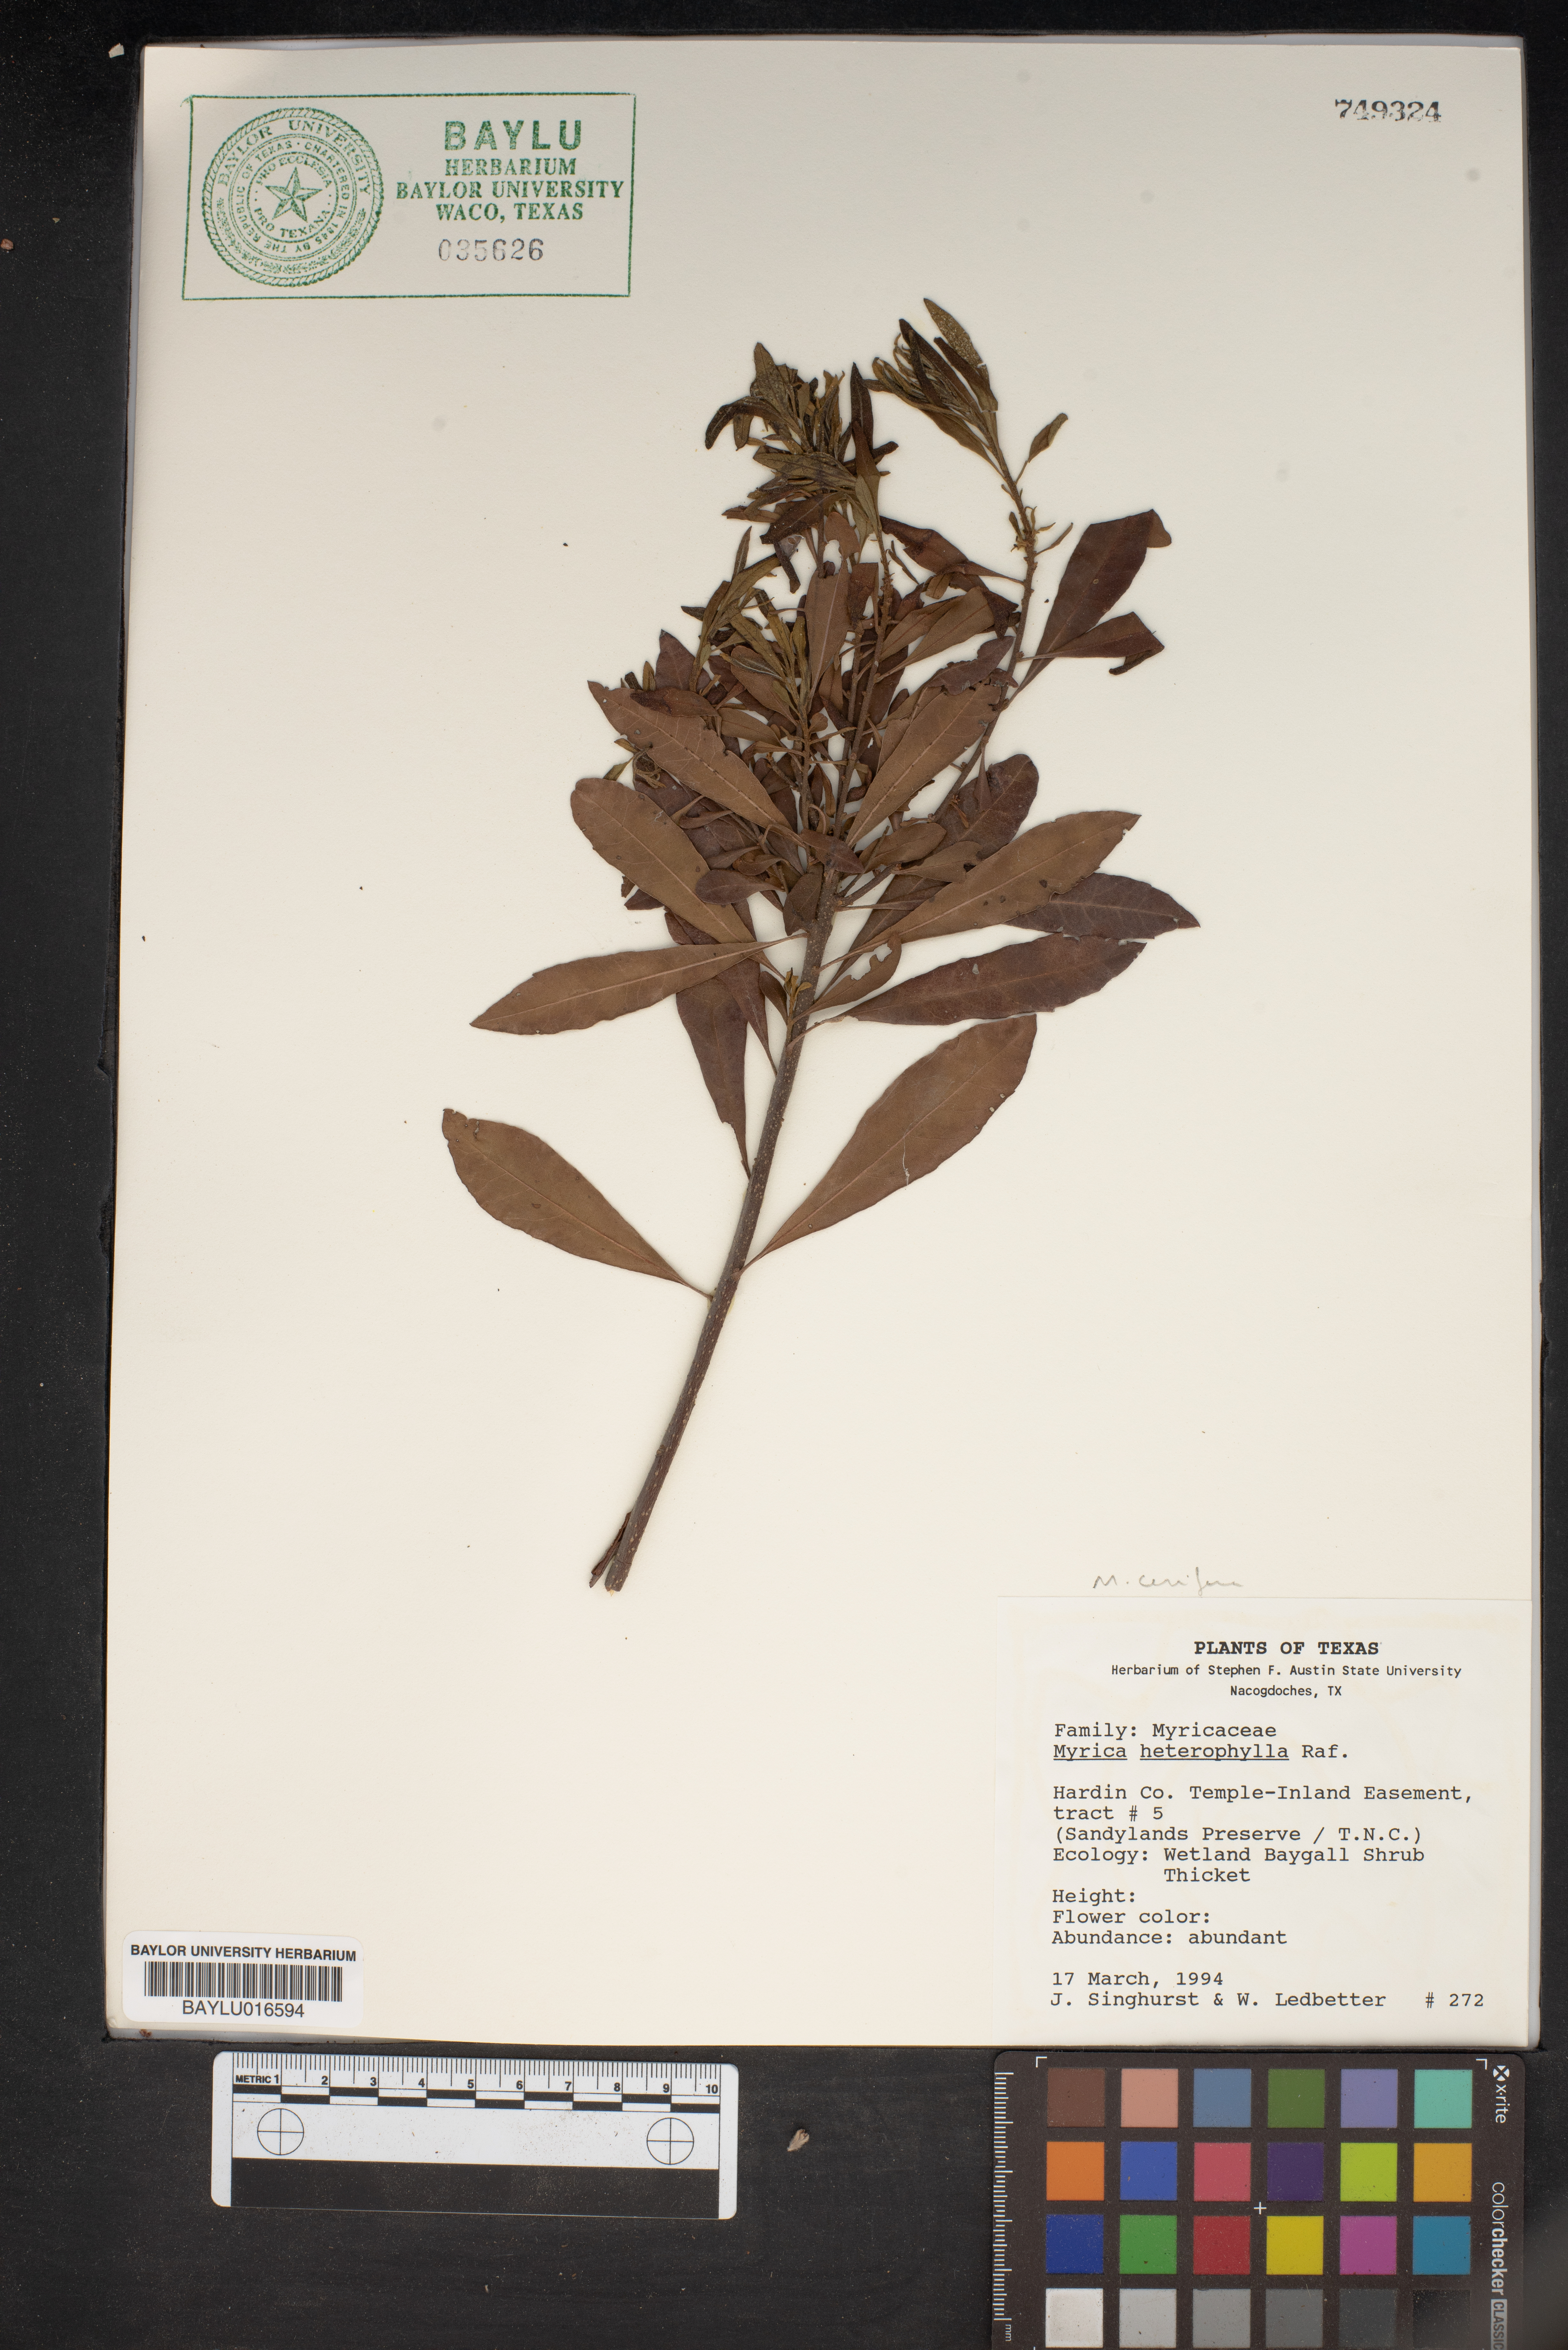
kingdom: Plantae
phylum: Tracheophyta
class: Magnoliopsida
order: Fagales
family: Myricaceae
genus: Morella
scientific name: Morella caroliniensis
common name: Evergreen bayberry
